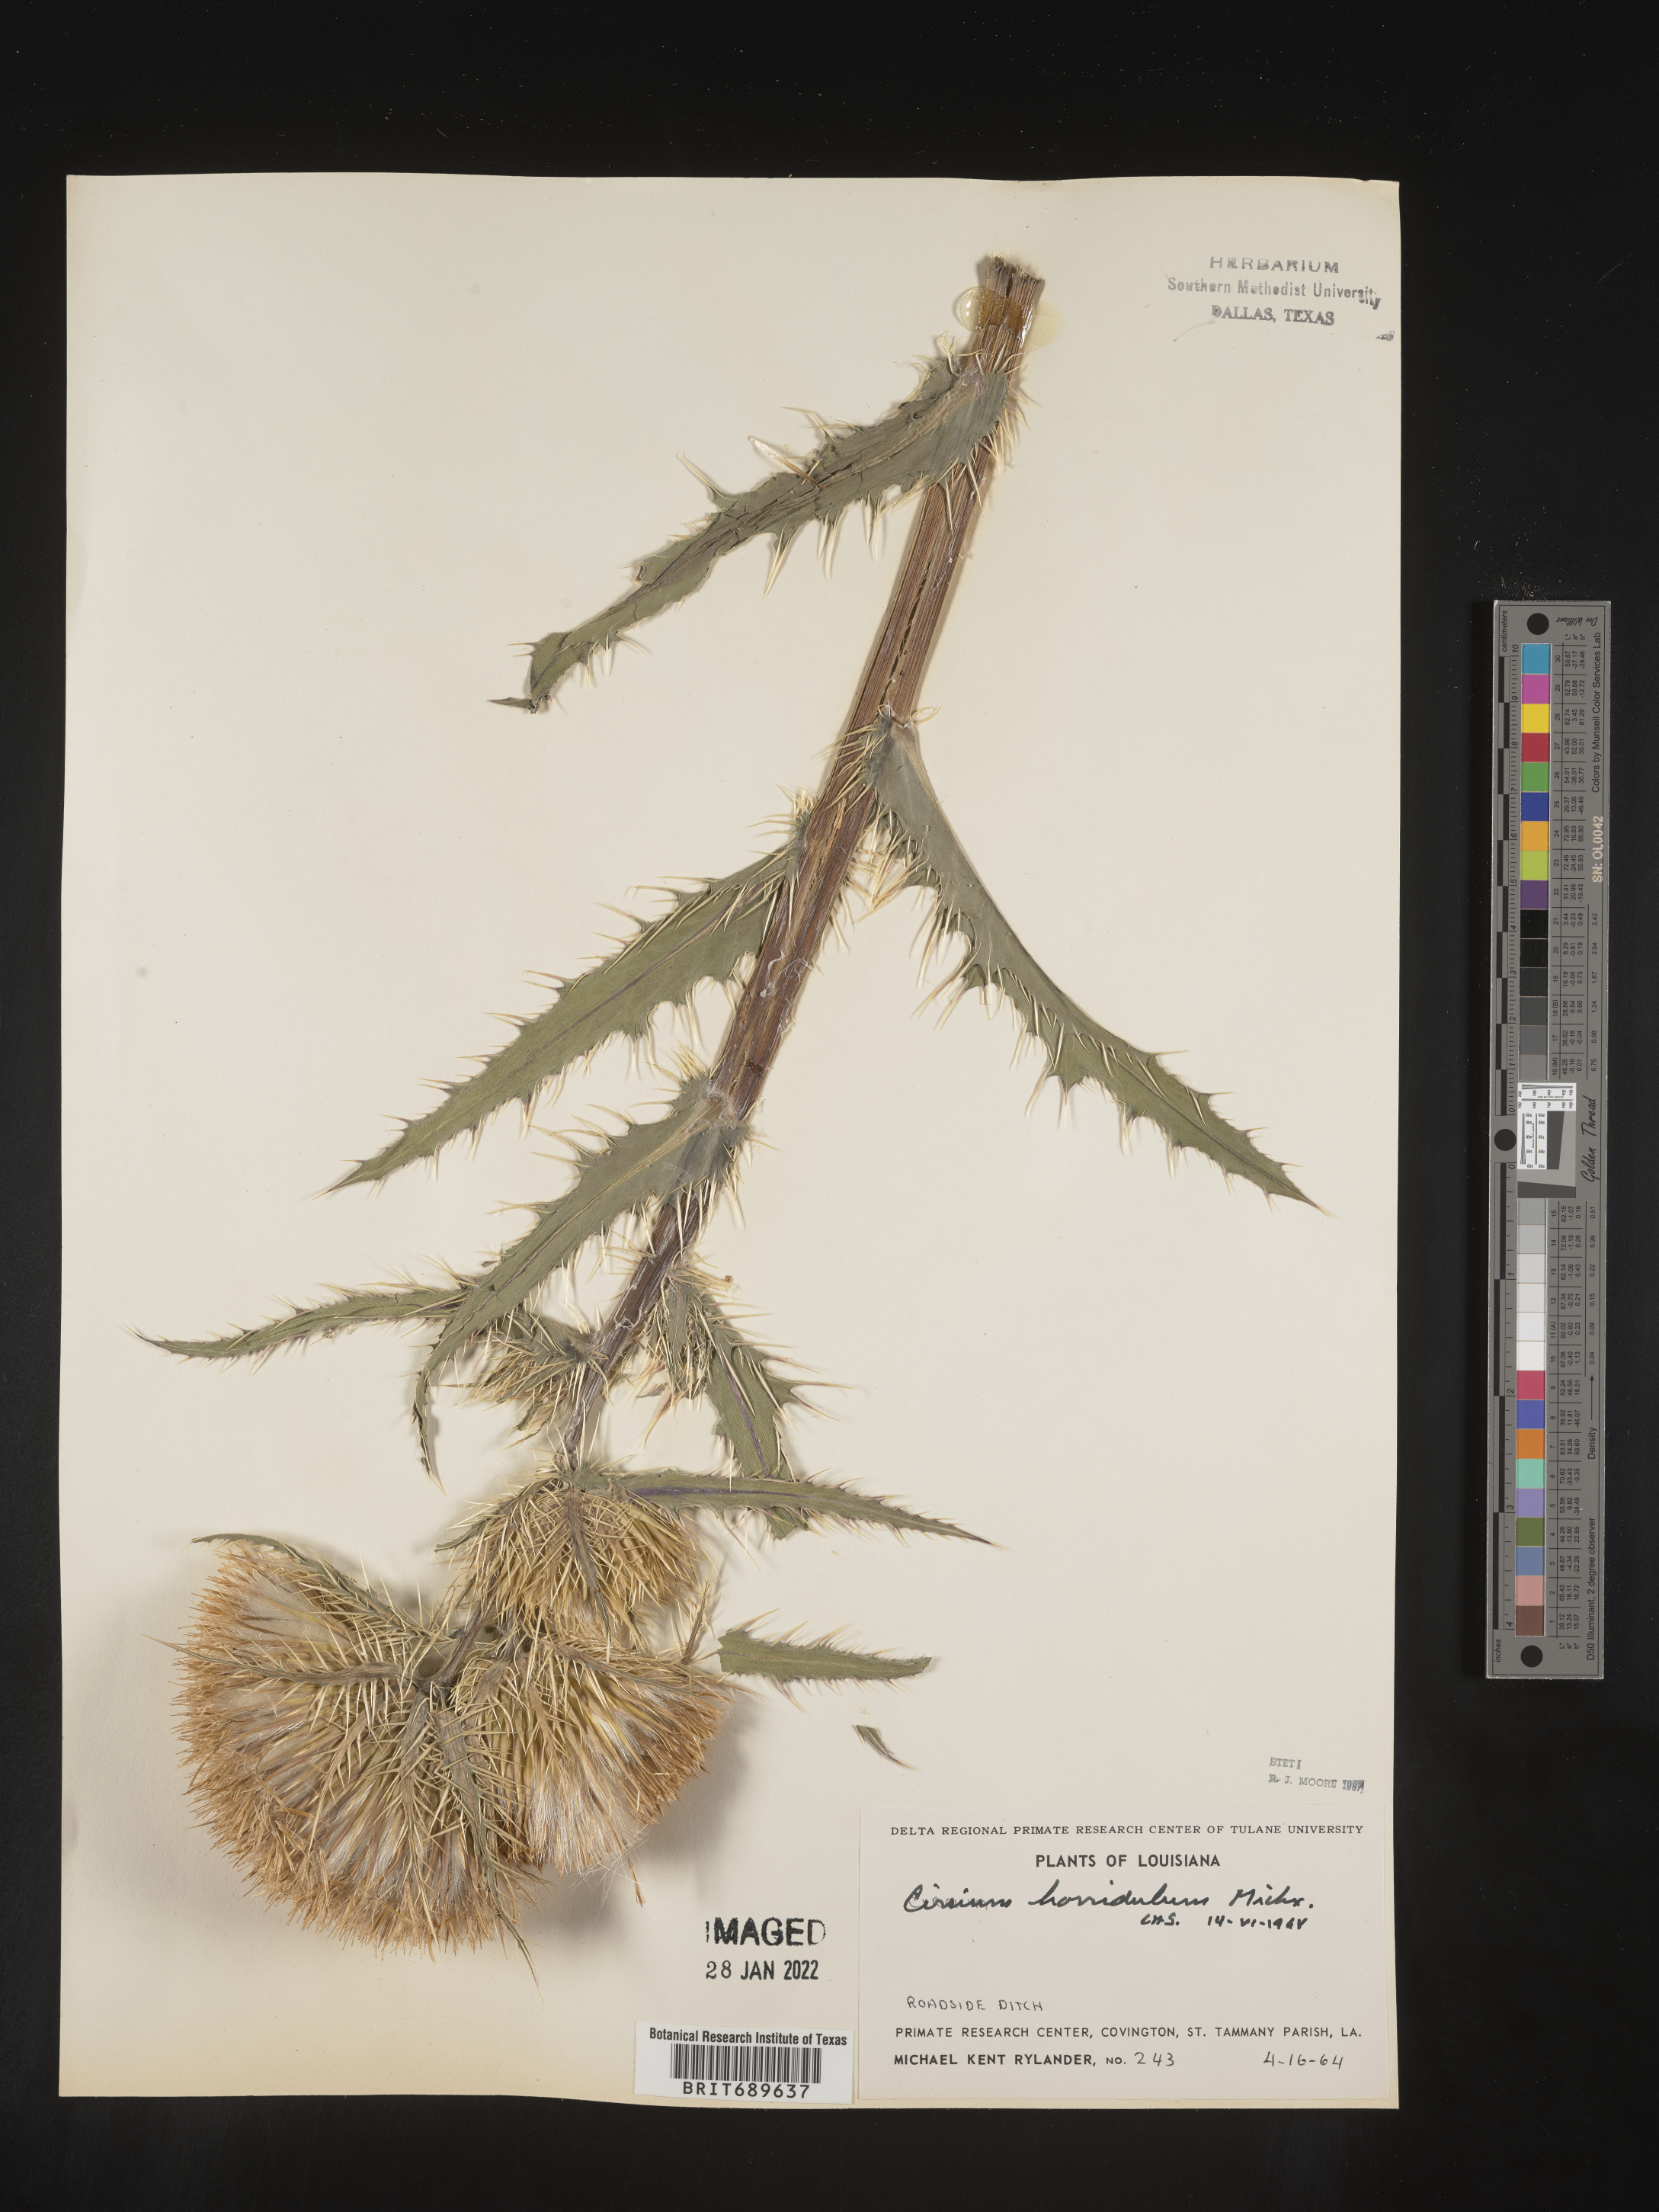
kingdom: Plantae
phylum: Tracheophyta
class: Magnoliopsida
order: Asterales
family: Asteraceae
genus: Cirsium
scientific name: Cirsium horridulum
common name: Bristly thistle
